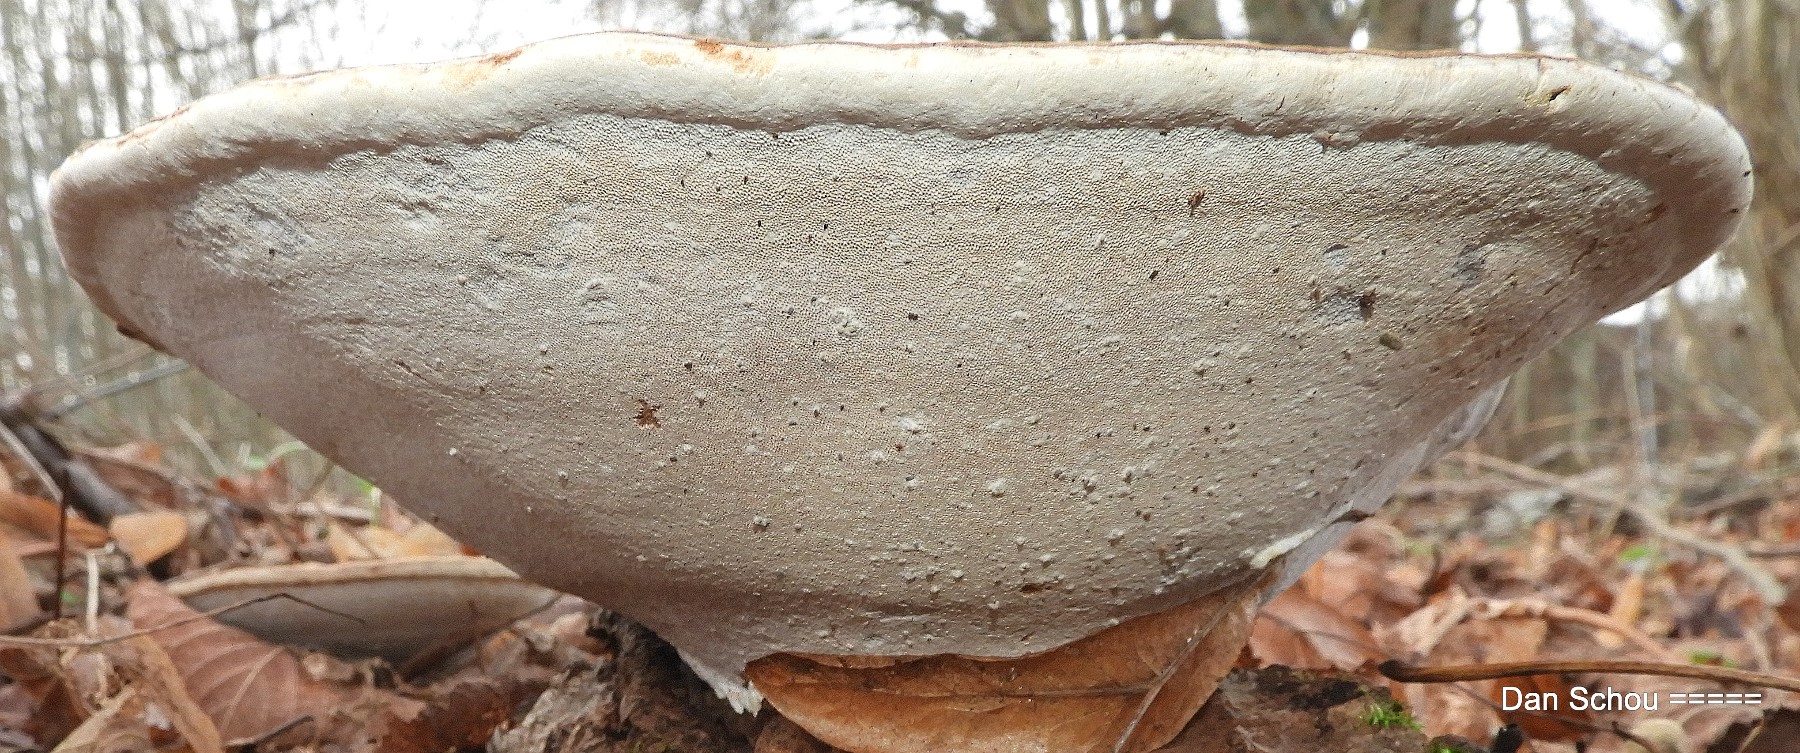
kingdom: Fungi
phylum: Basidiomycota
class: Agaricomycetes
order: Polyporales
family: Polyporaceae
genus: Ganoderma
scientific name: Ganoderma applanatum
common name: flad lakporesvamp
